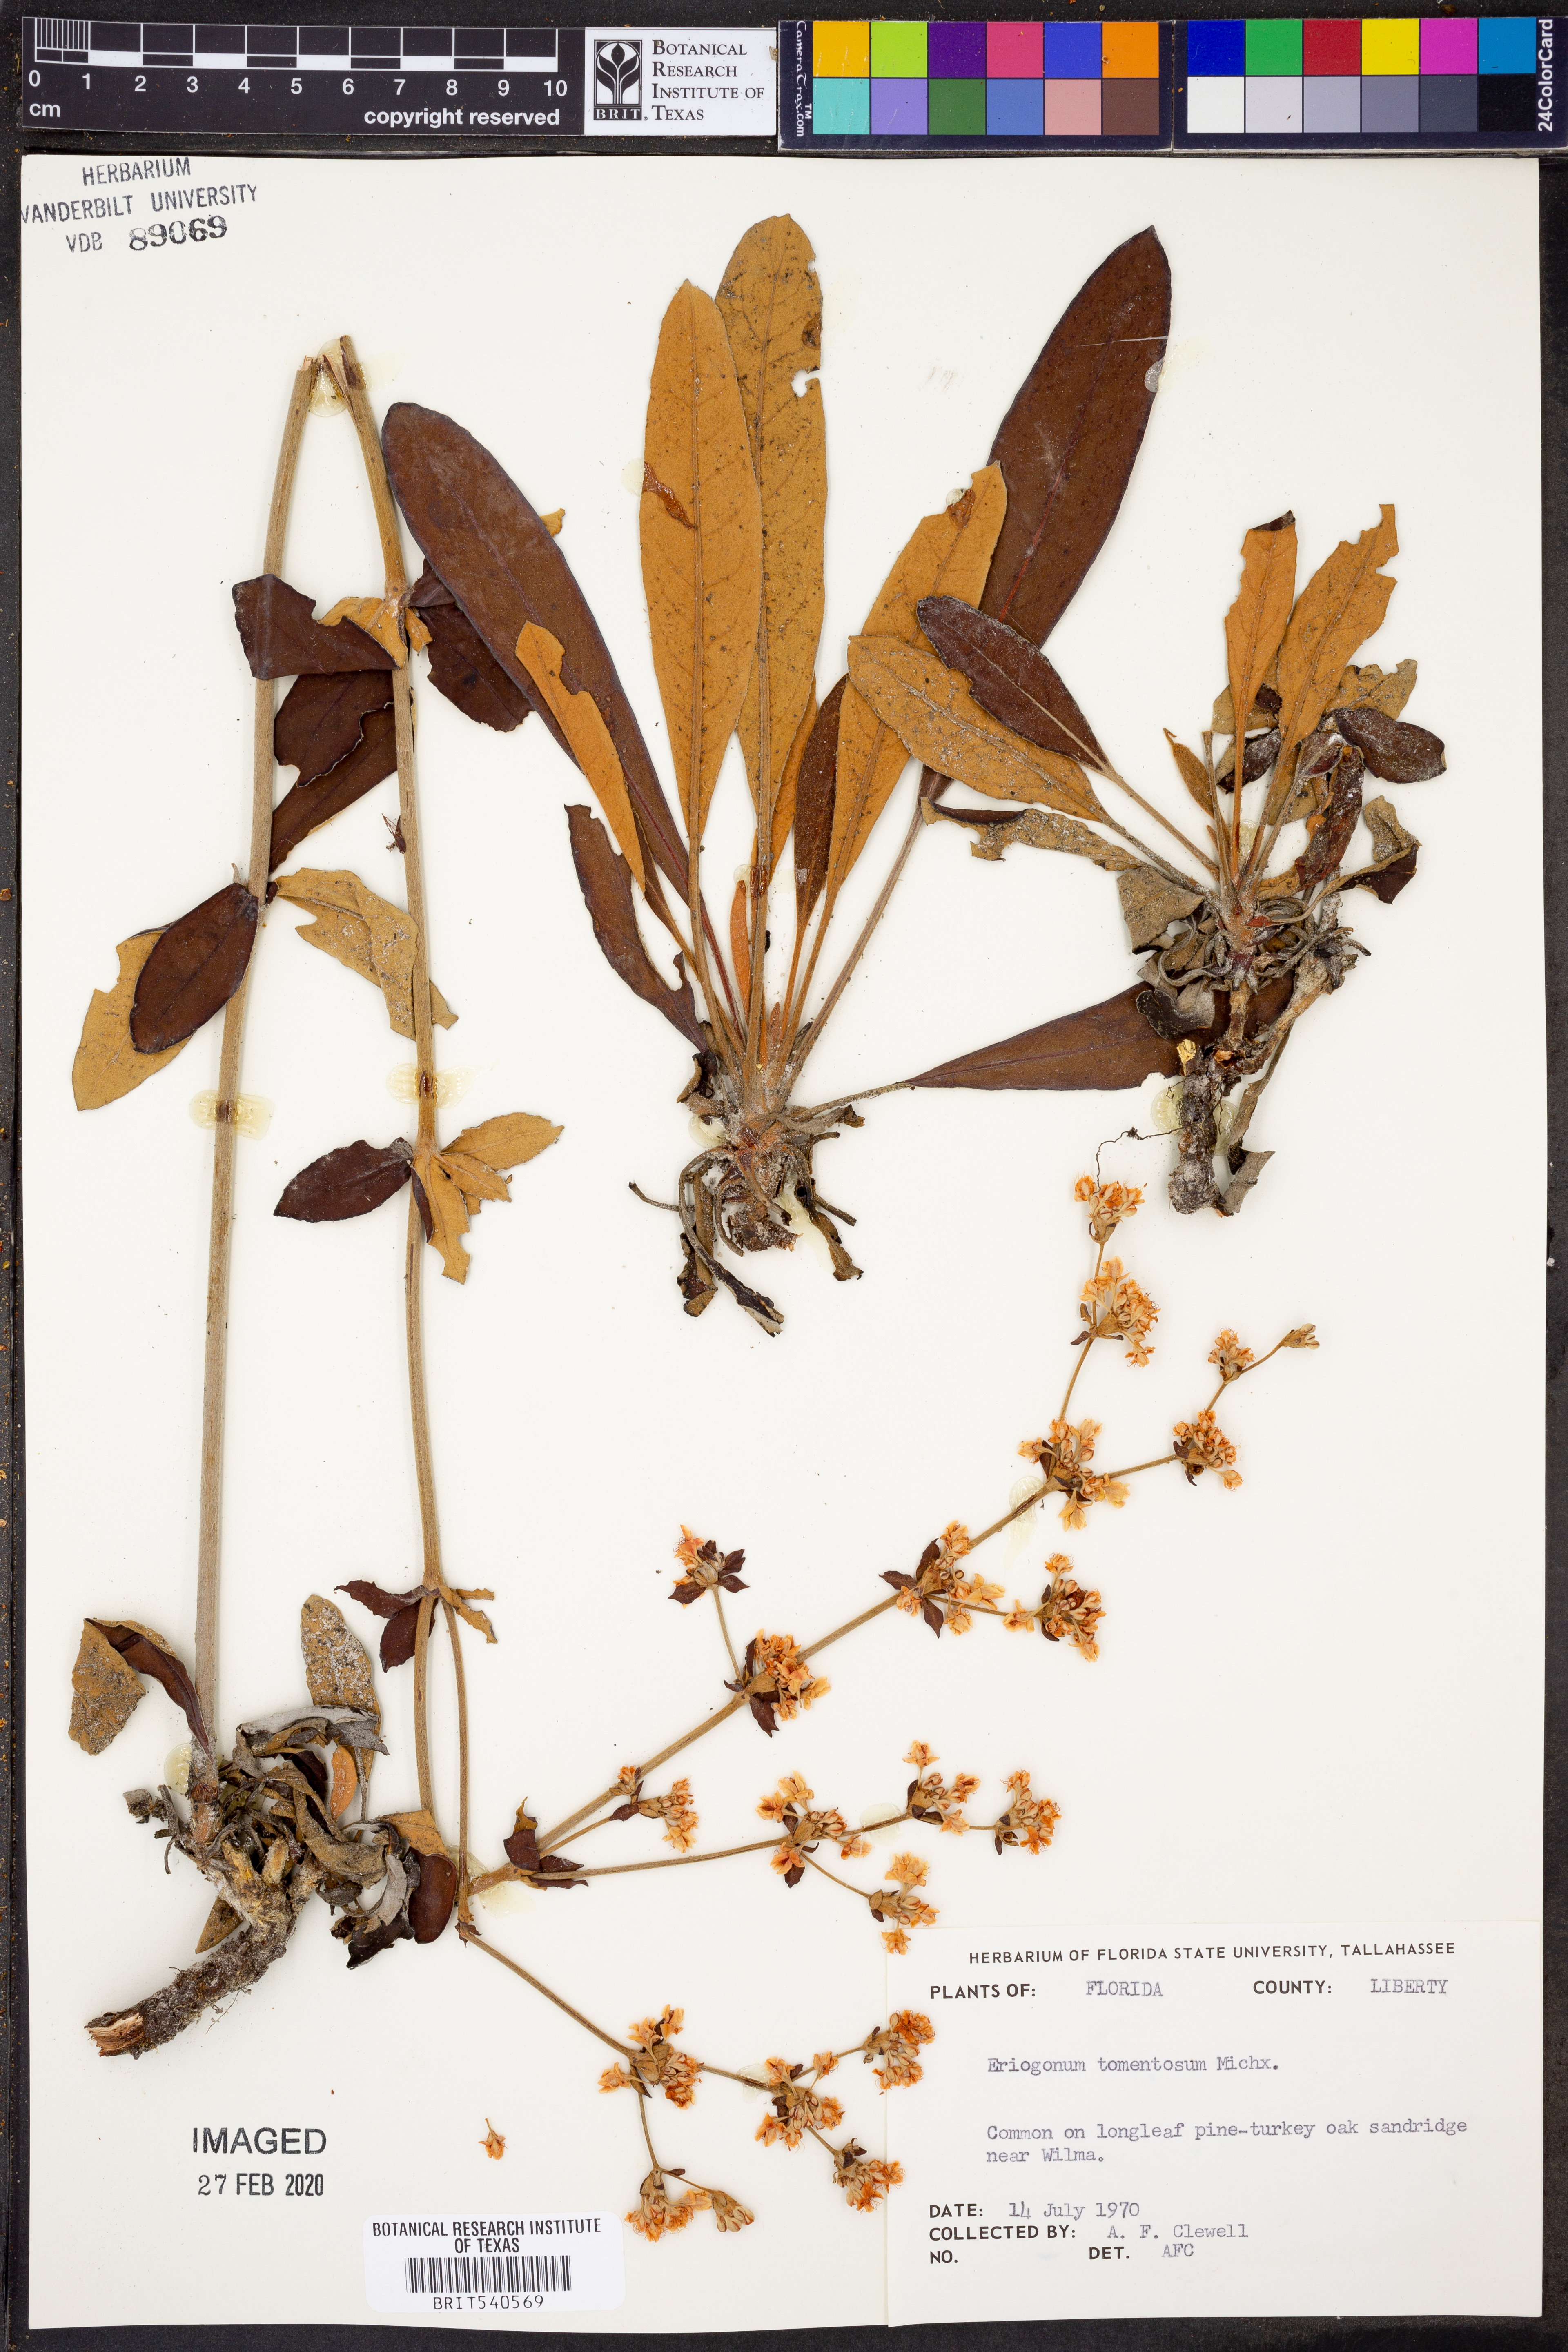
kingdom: Plantae
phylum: Tracheophyta
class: Magnoliopsida
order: Caryophyllales
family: Polygonaceae
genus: Eriogonum
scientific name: Eriogonum tomentosum
